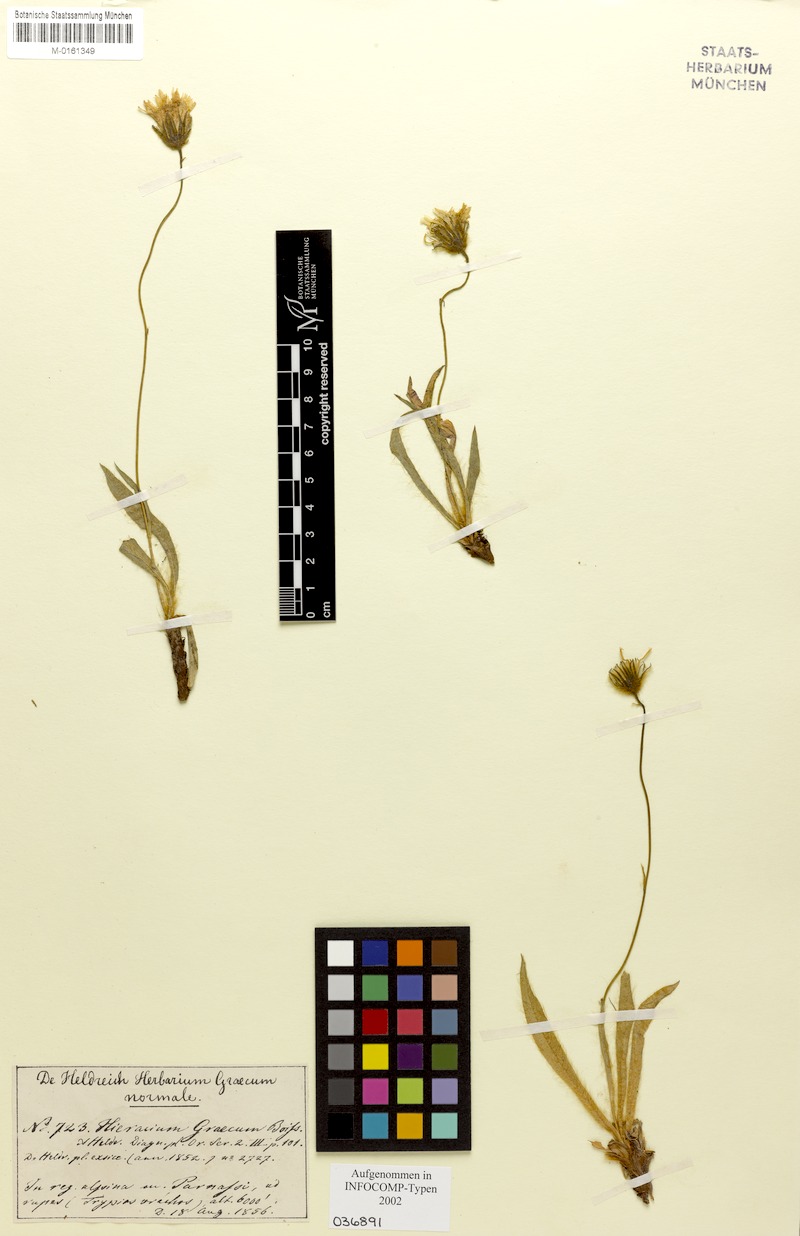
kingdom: Plantae
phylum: Tracheophyta
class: Magnoliopsida
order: Asterales
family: Asteraceae
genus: Hieracium
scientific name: Hieracium graecum
